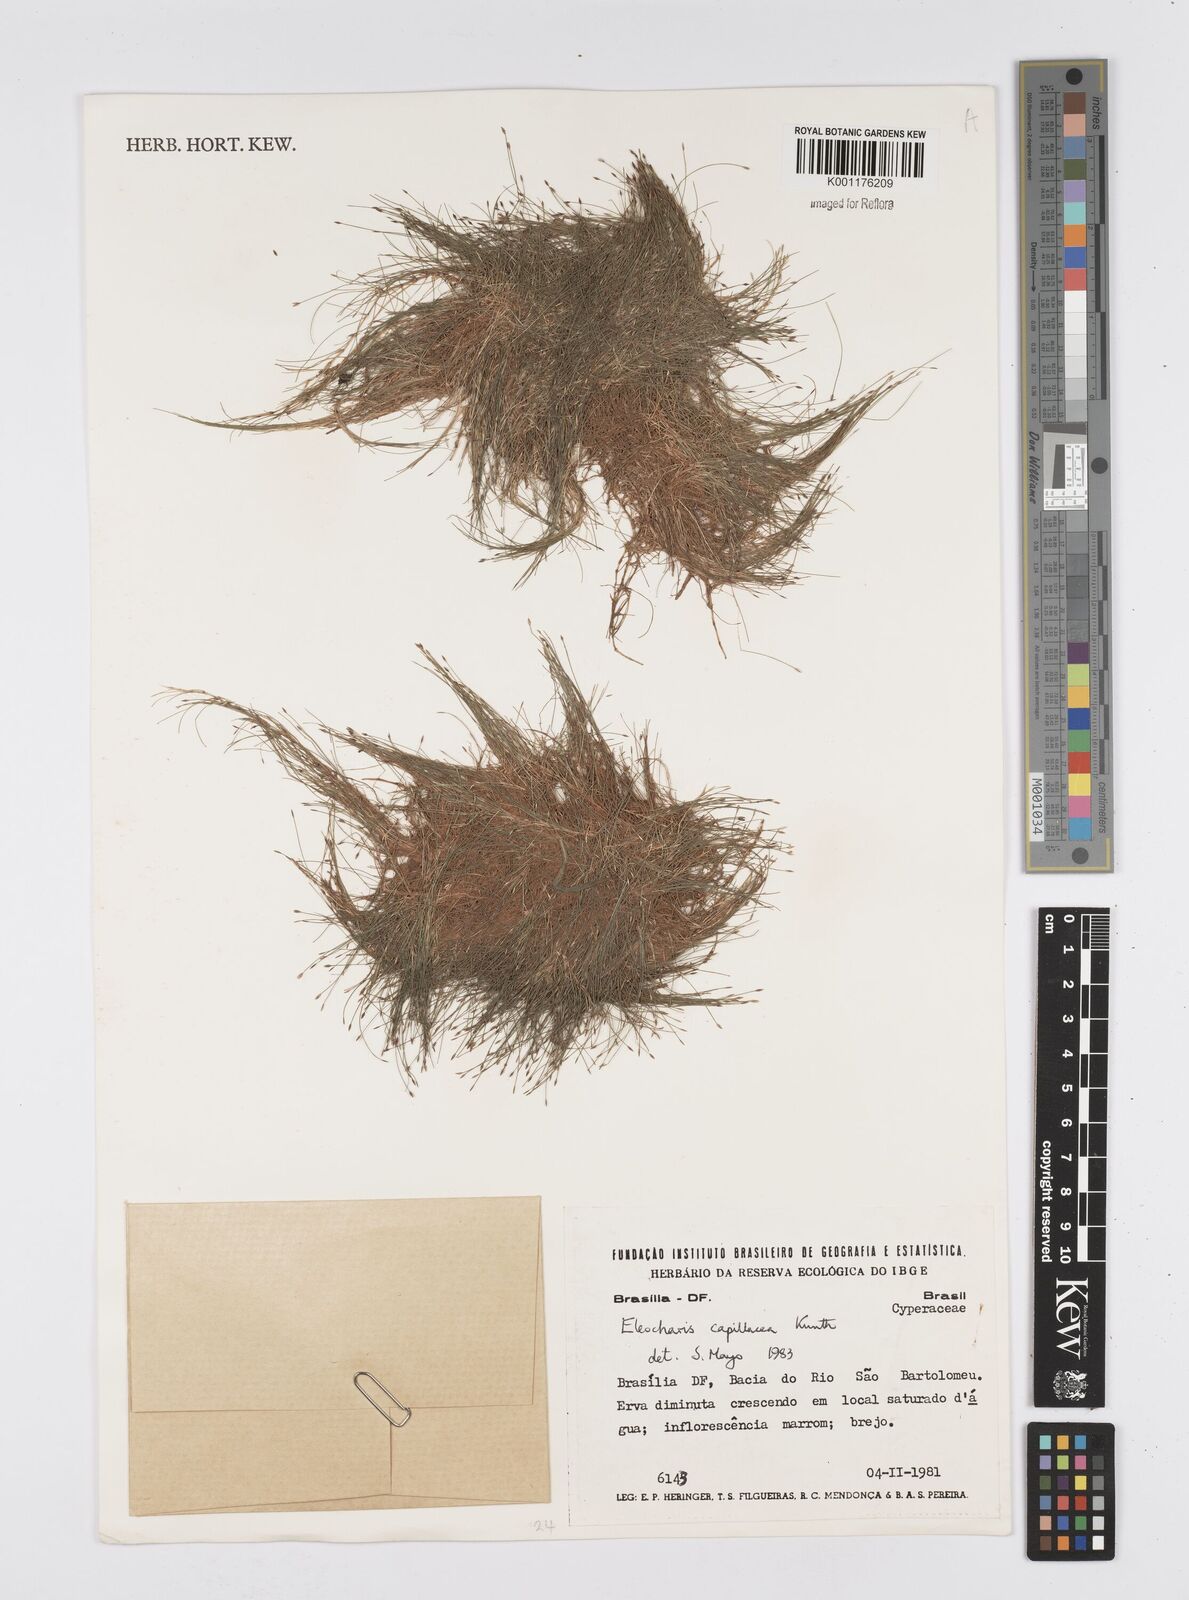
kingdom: Plantae
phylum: Tracheophyta
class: Liliopsida
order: Poales
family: Cyperaceae
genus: Eleocharis
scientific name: Eleocharis capillacea
